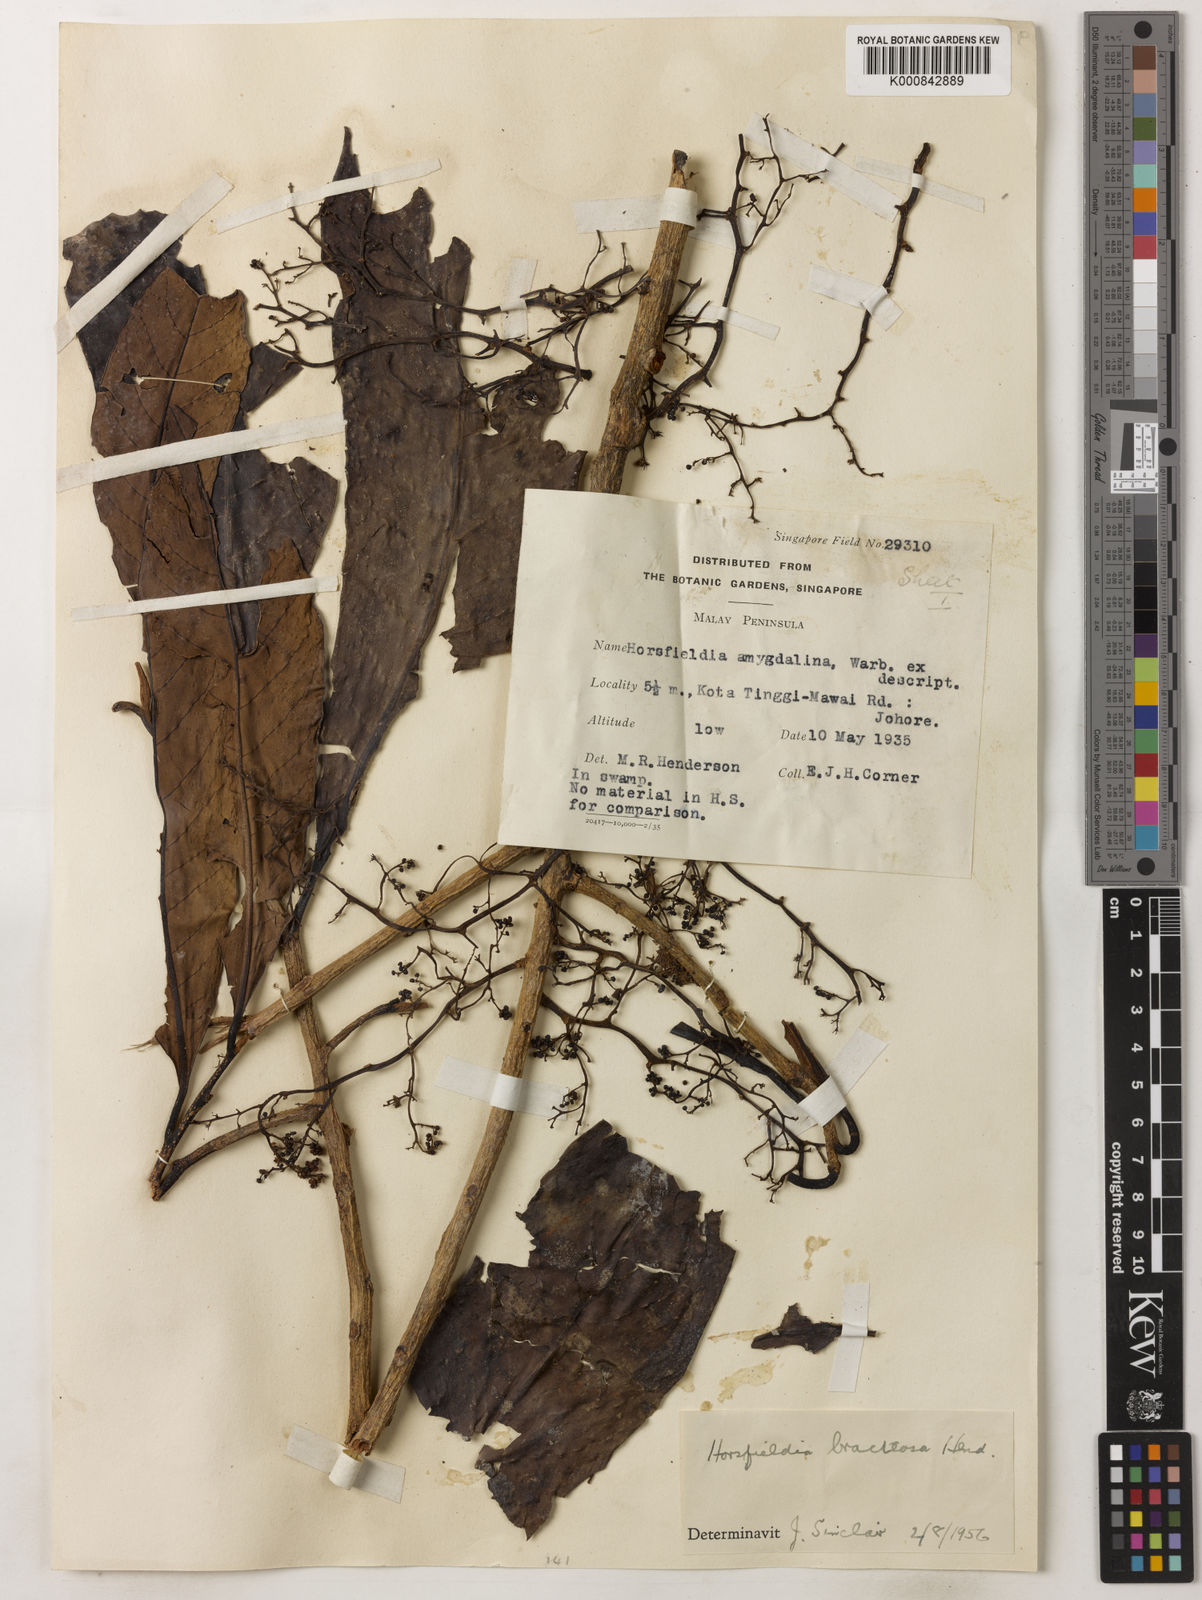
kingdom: Plantae
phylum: Tracheophyta
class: Magnoliopsida
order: Magnoliales
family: Myristicaceae
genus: Horsfieldia
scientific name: Horsfieldia sucosa
